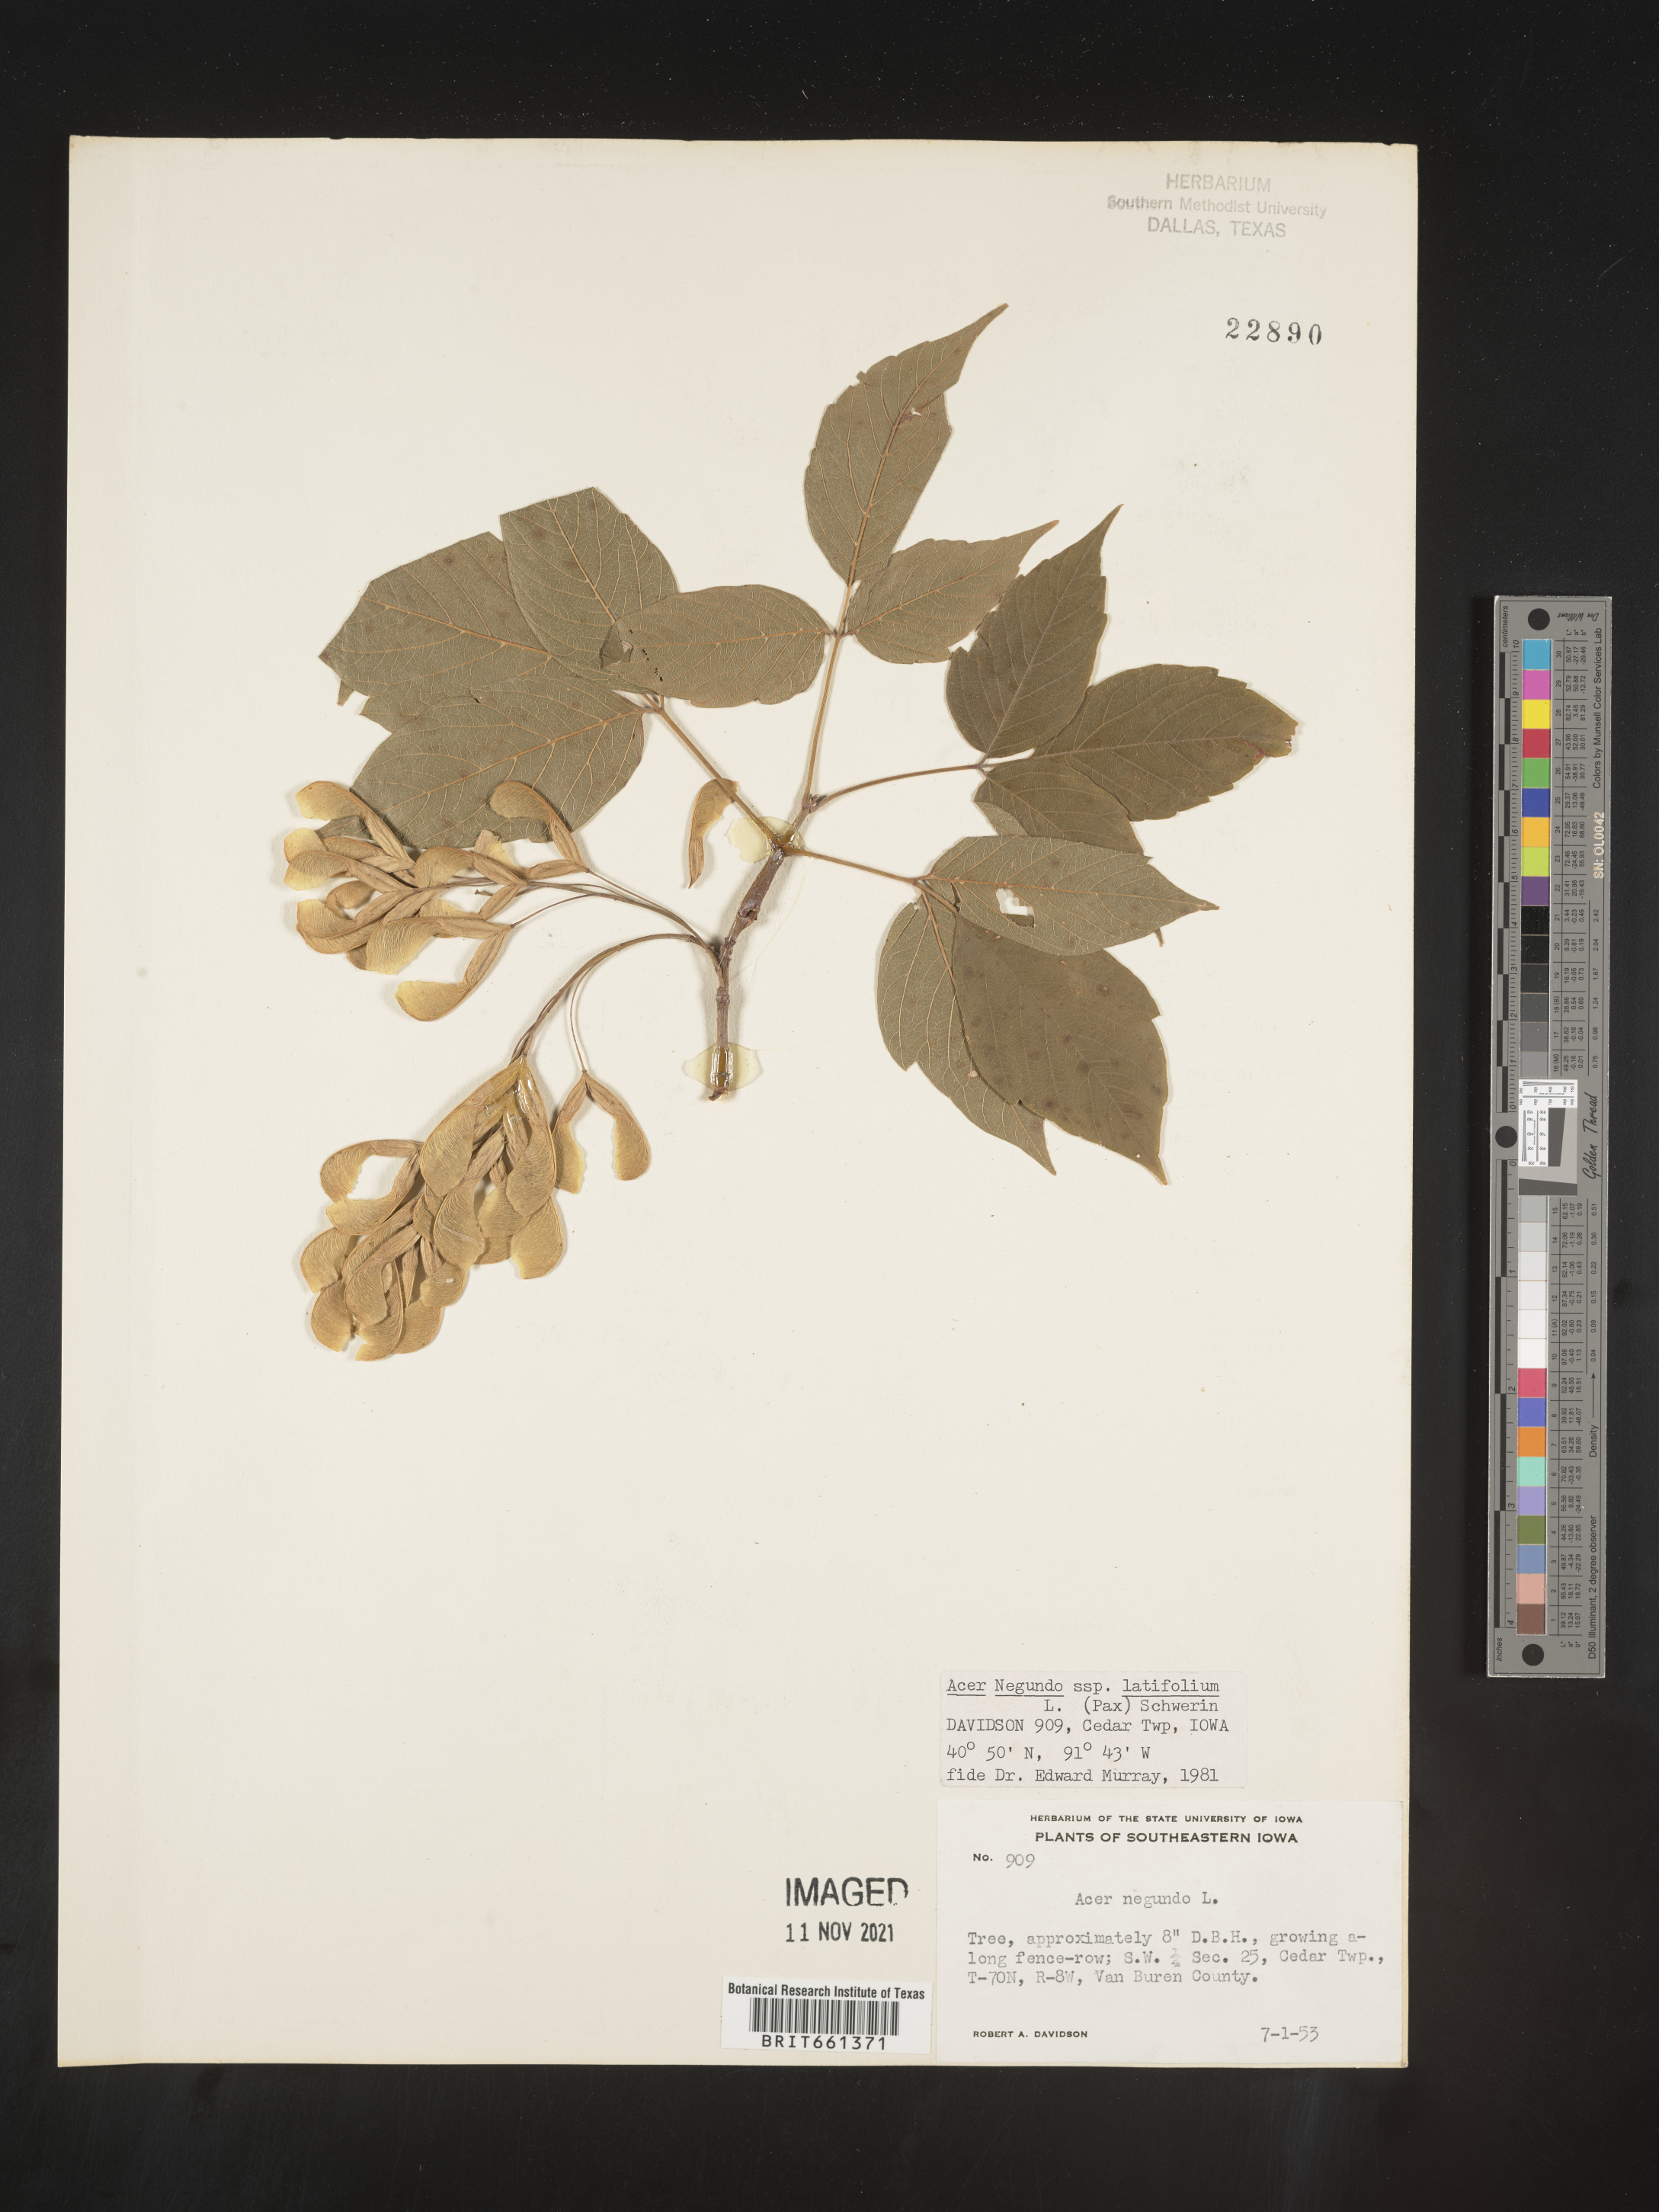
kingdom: Plantae
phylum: Tracheophyta
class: Magnoliopsida
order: Sapindales
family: Sapindaceae
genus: Acer
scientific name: Acer negundo
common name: Ashleaf maple
